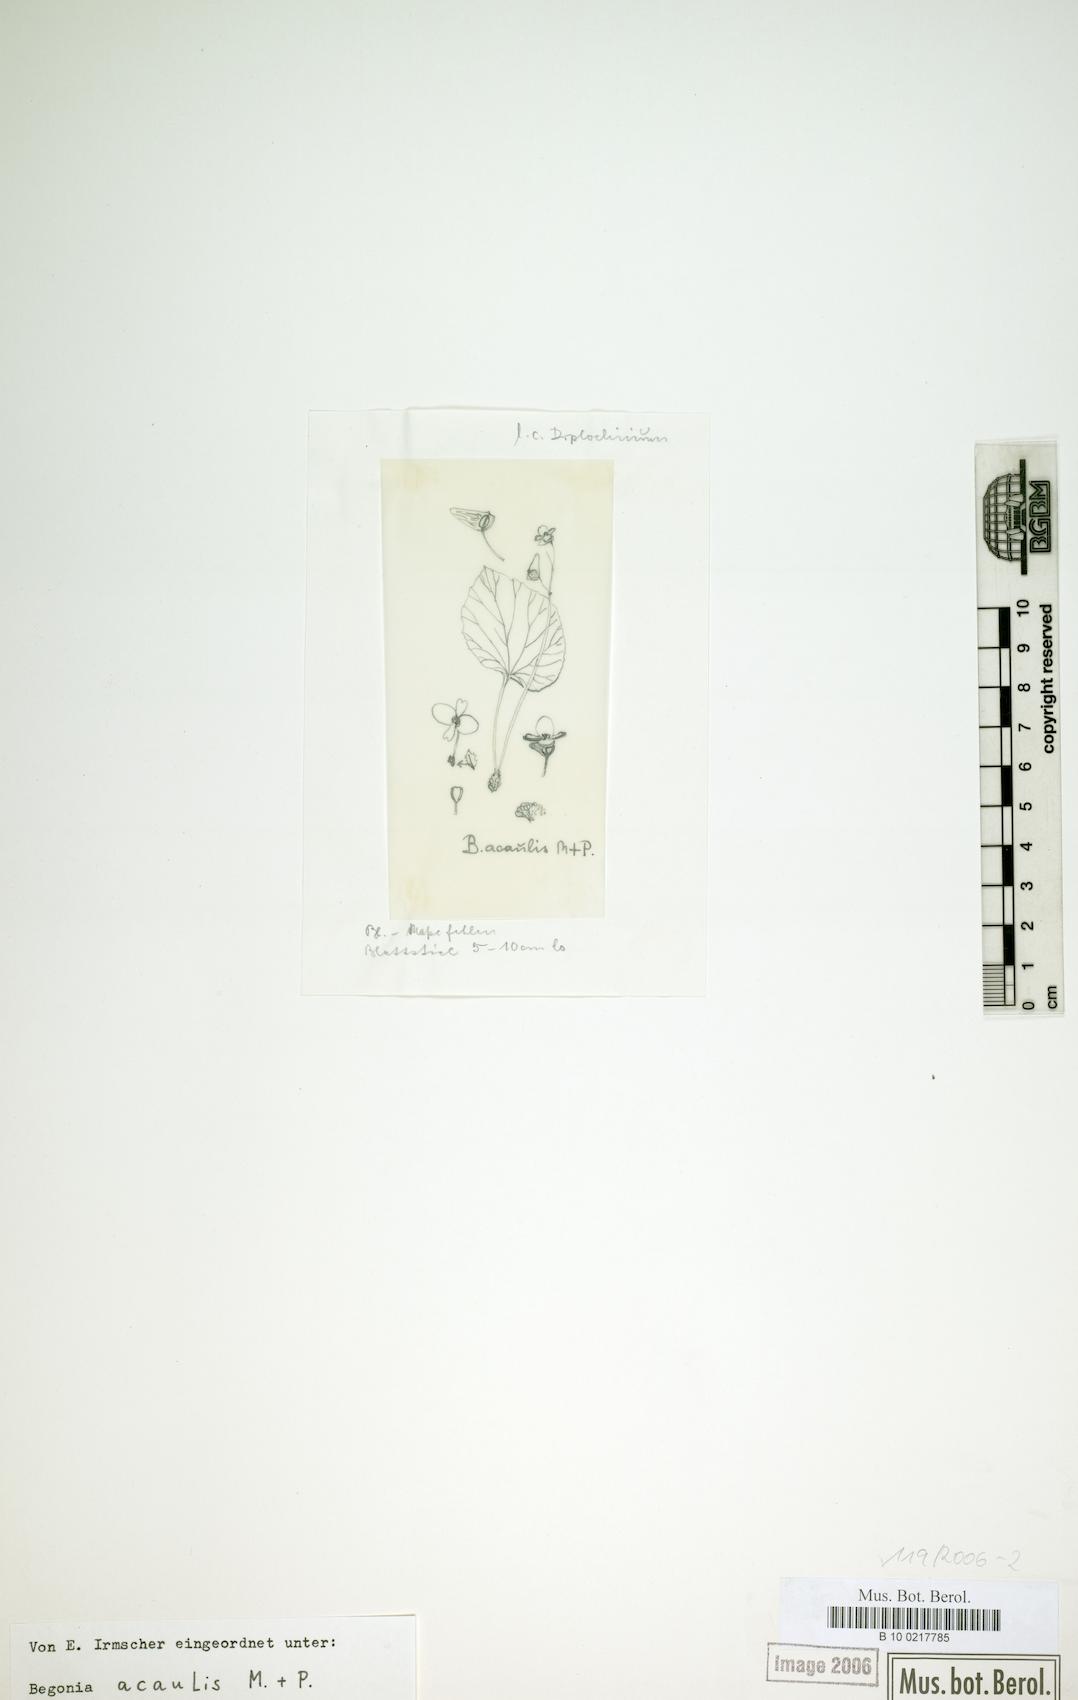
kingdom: Plantae
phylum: Tracheophyta
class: Magnoliopsida
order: Cucurbitales
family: Begoniaceae
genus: Begonia
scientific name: Begonia acaulis
